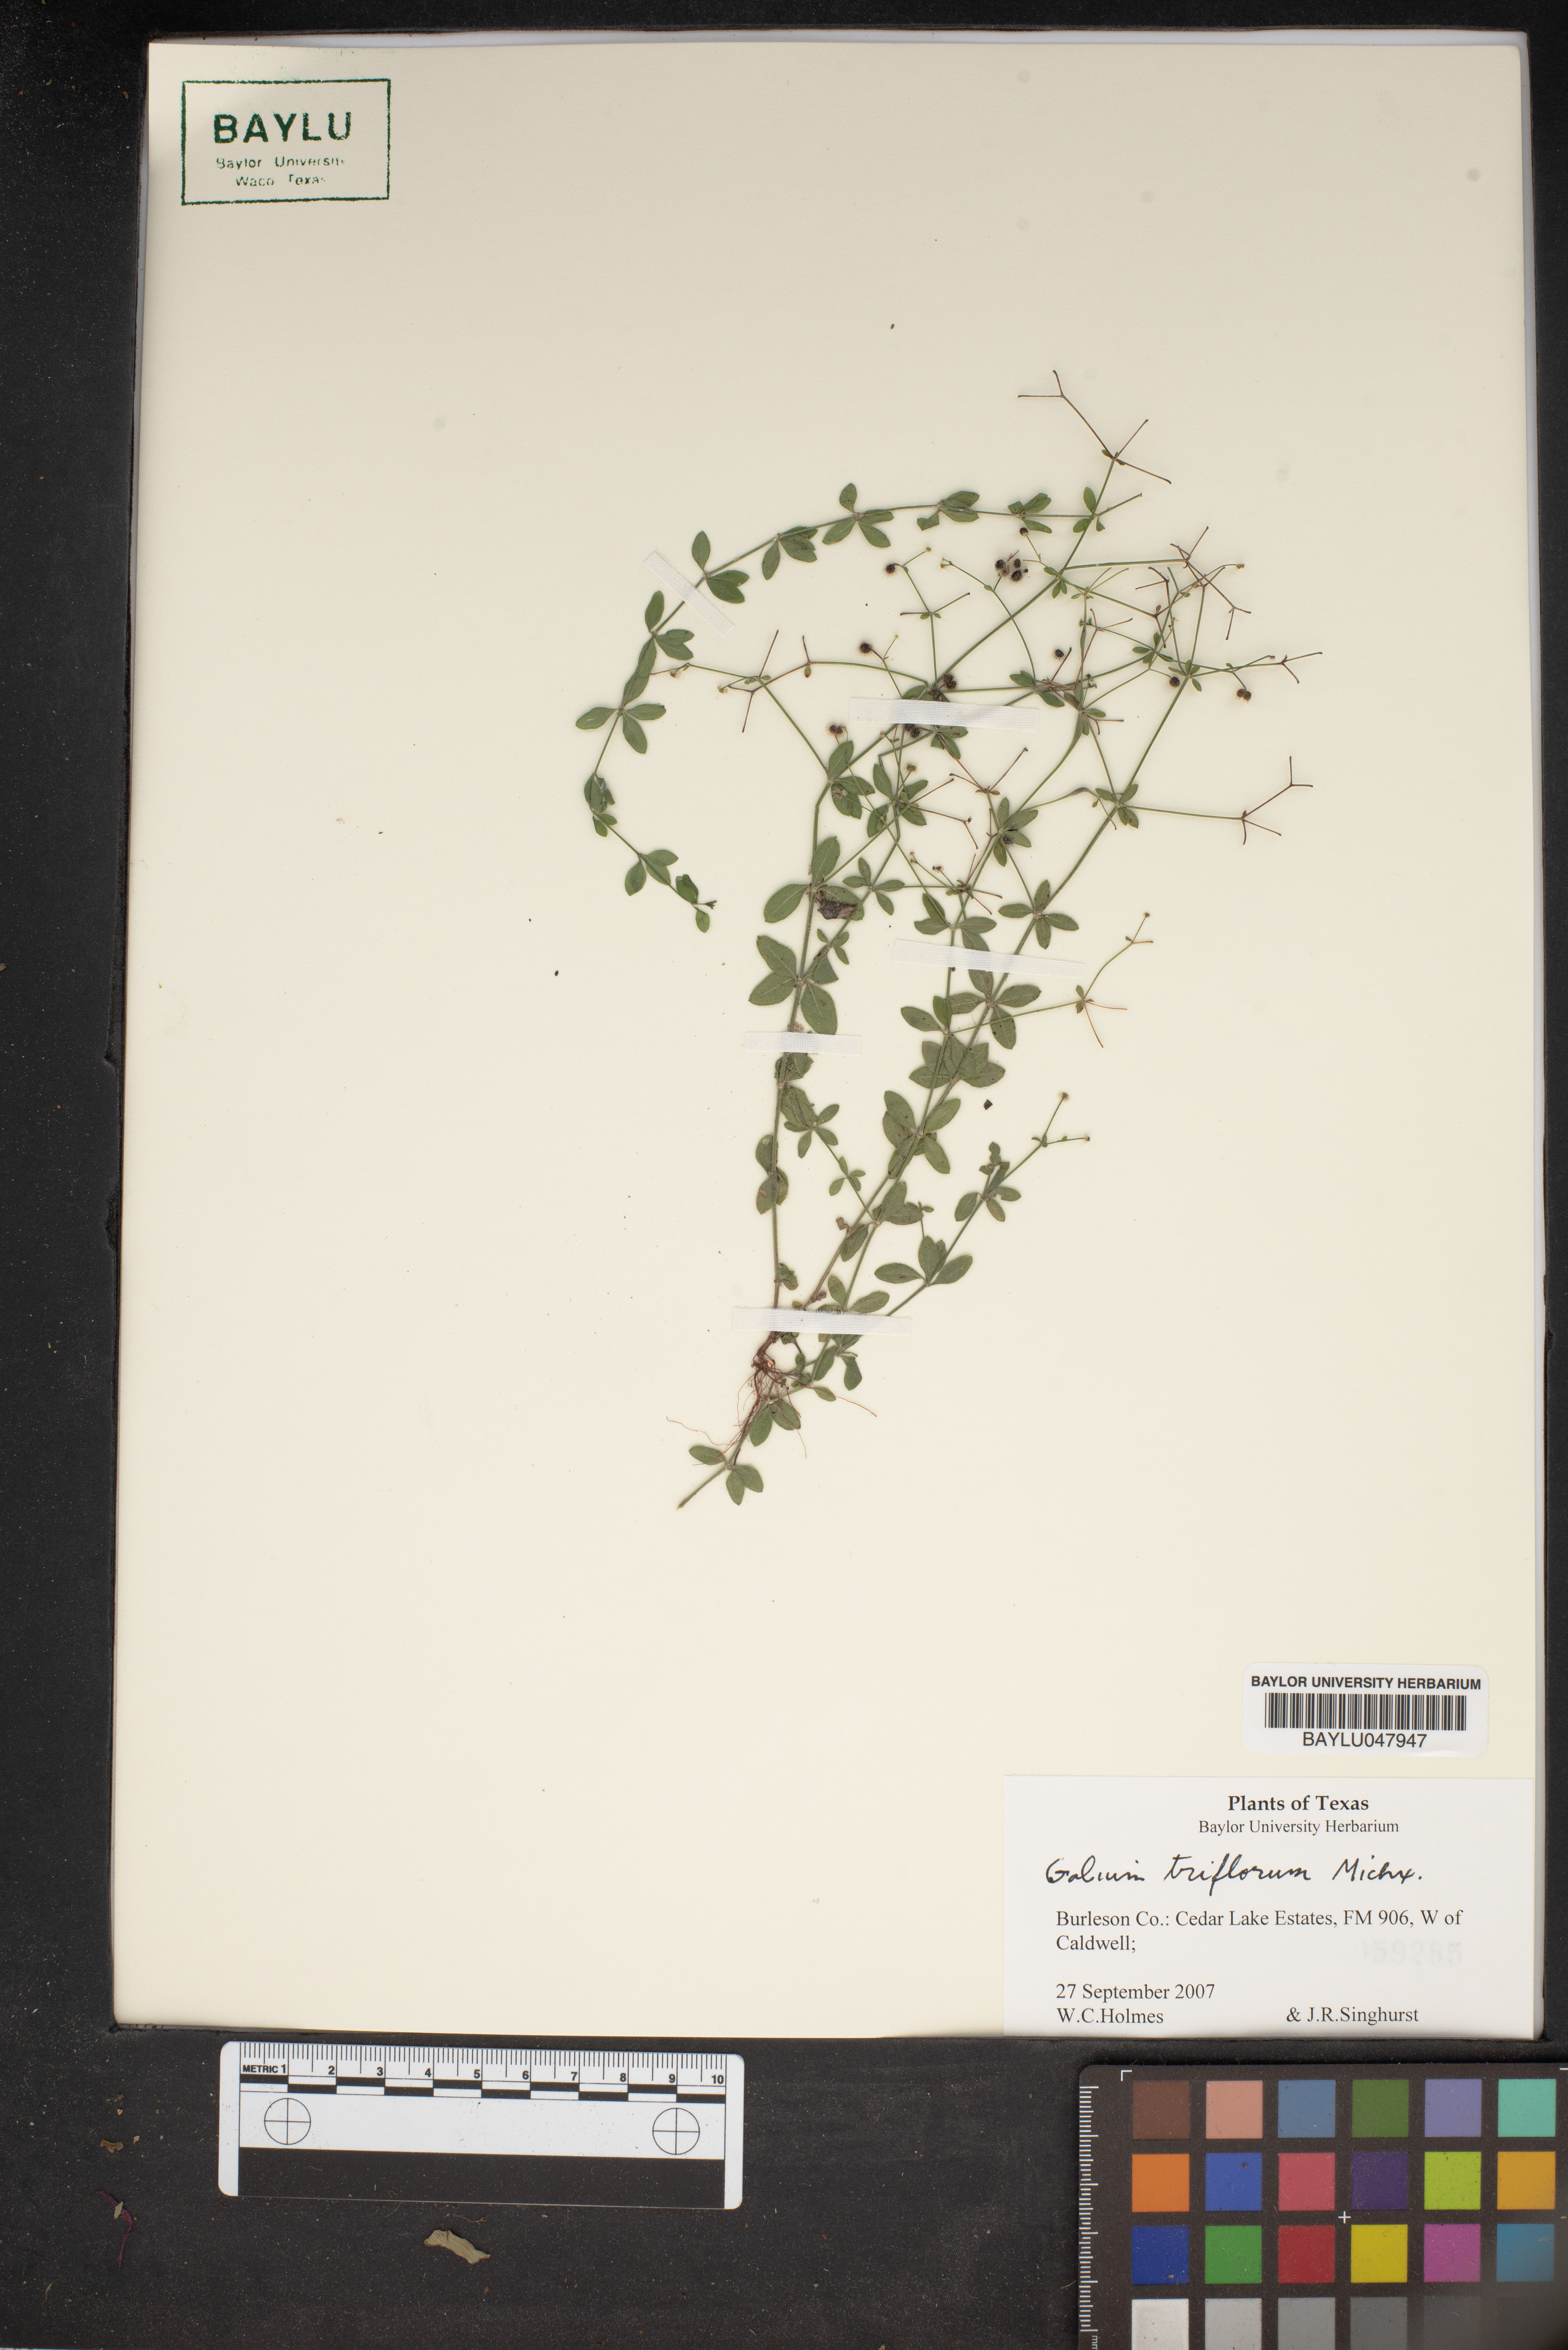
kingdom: Plantae
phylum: Tracheophyta
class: Magnoliopsida
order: Gentianales
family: Rubiaceae
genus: Galium
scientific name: Galium triflorum
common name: Fragrant bedstraw
